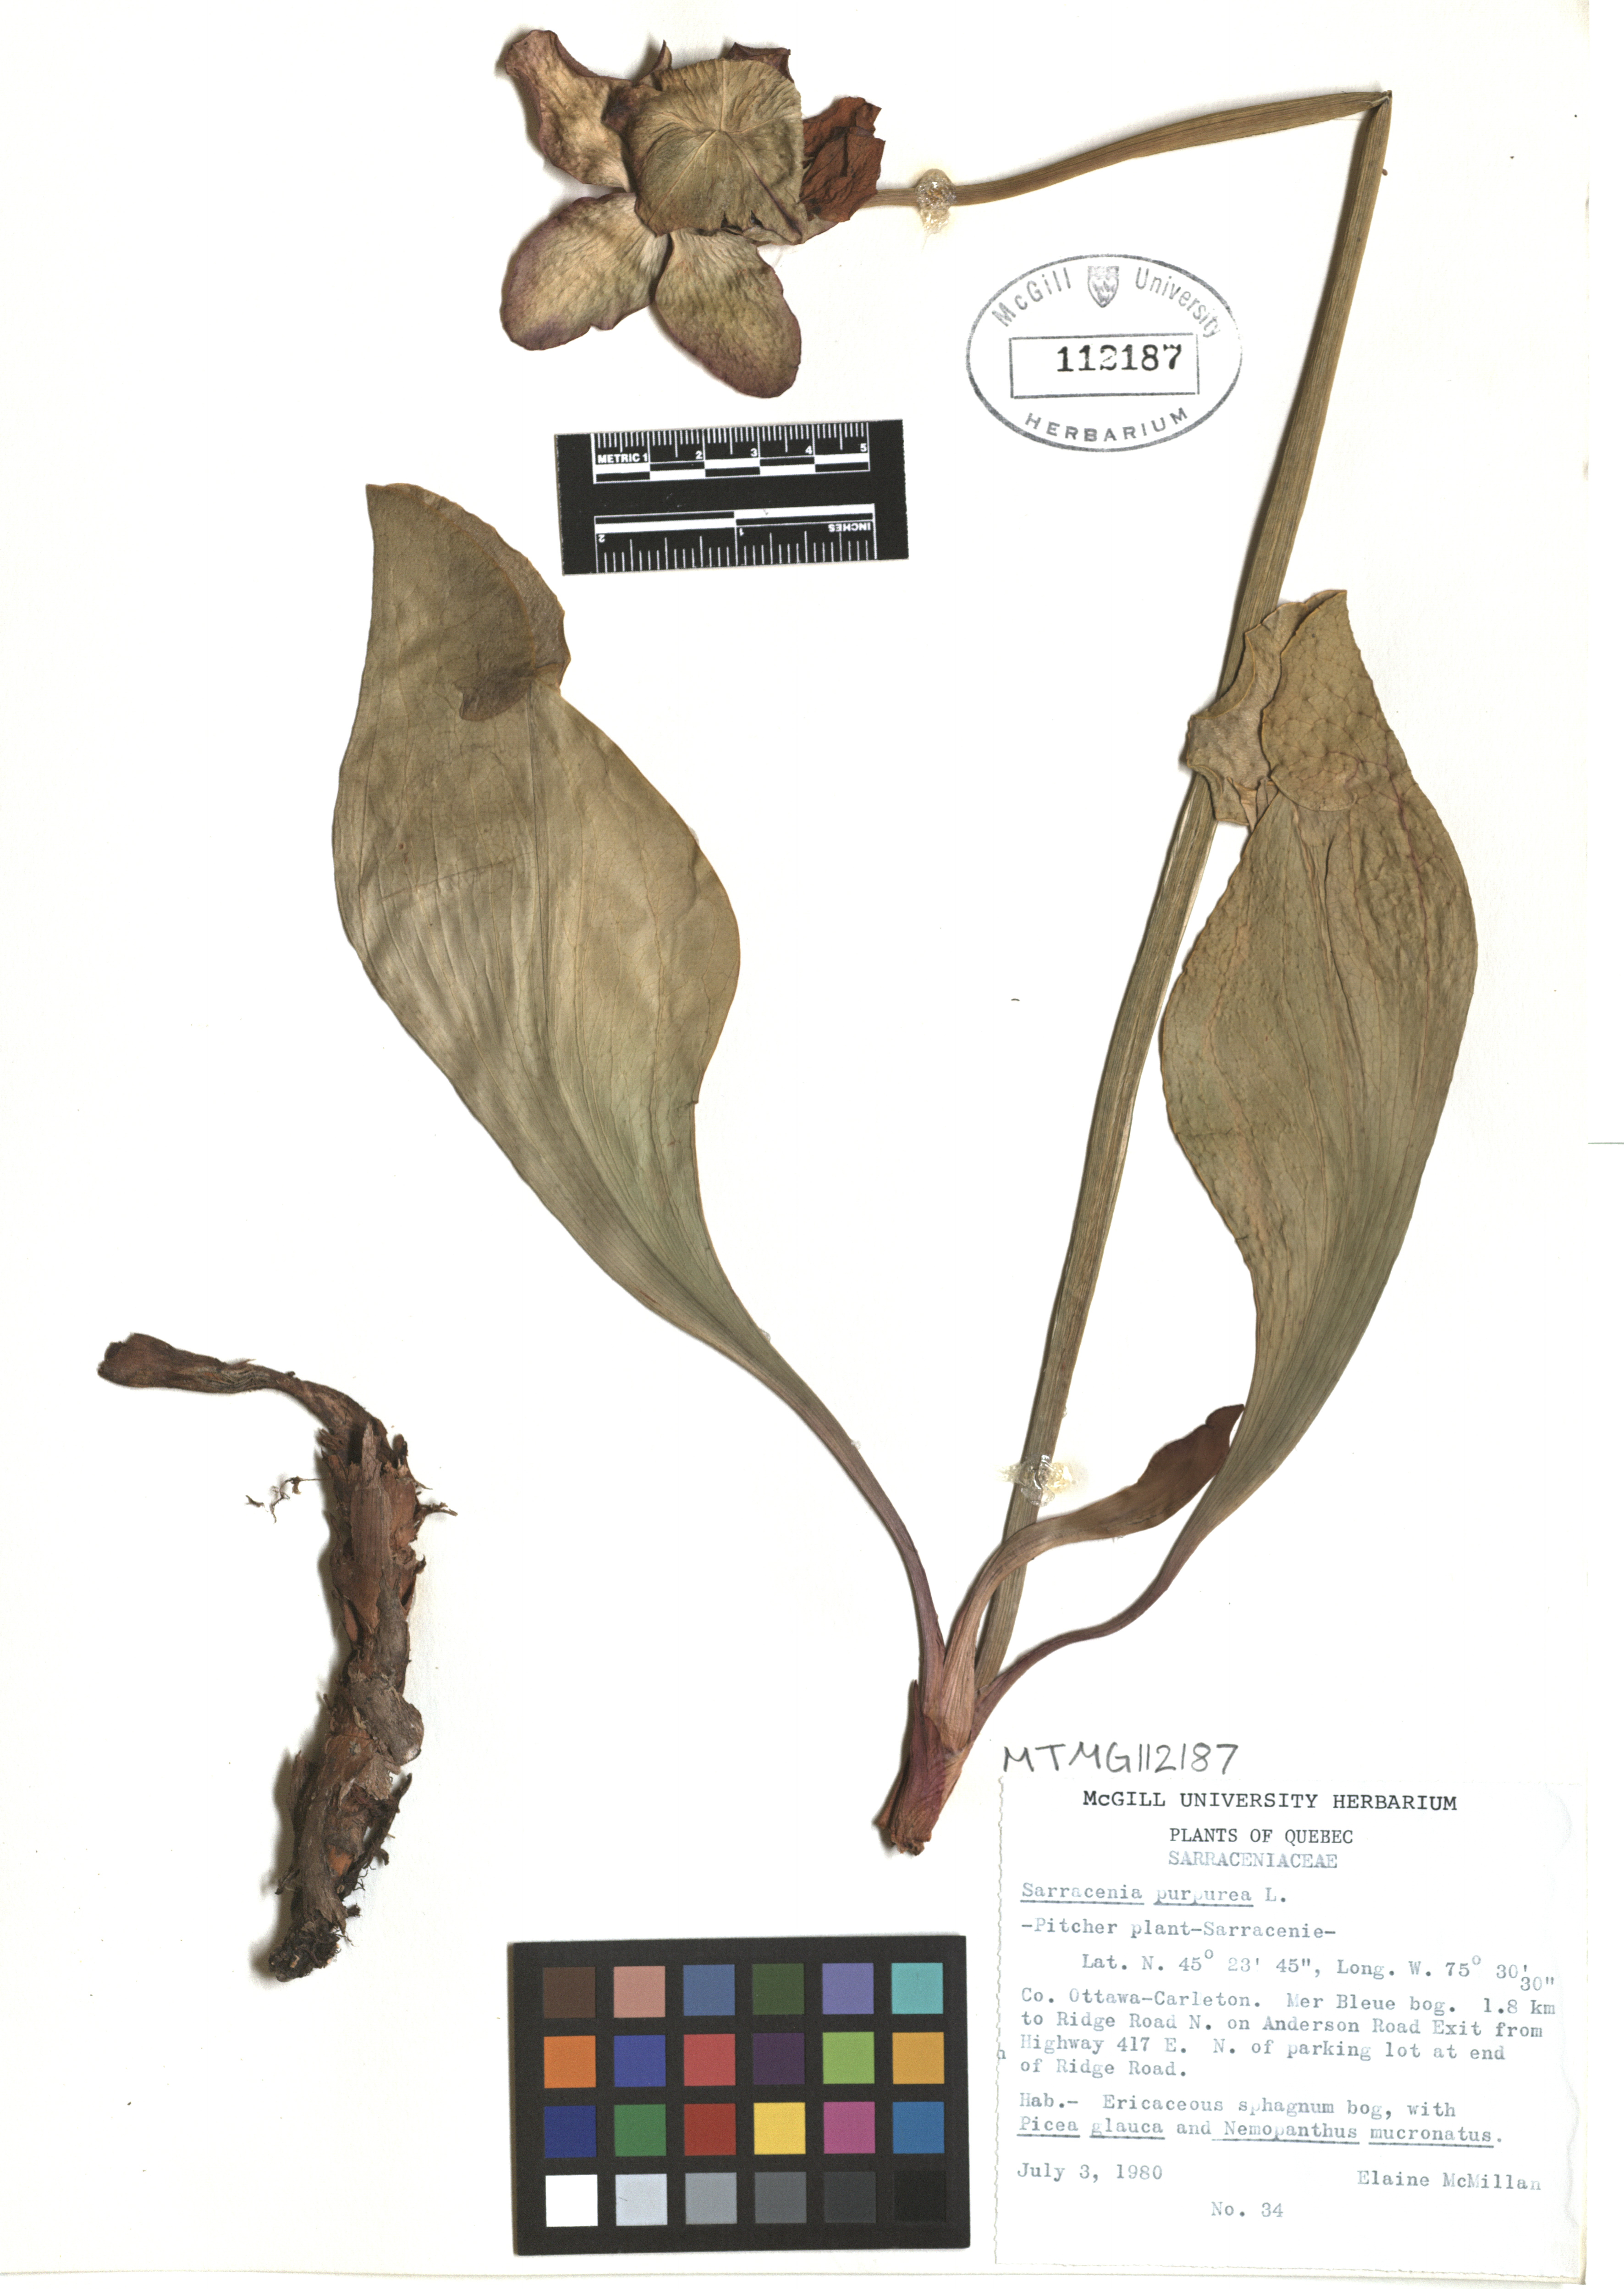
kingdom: Plantae
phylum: Tracheophyta
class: Magnoliopsida
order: Ericales
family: Sarraceniaceae
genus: Sarracenia
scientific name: Sarracenia purpurea
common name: Pitcherplant
